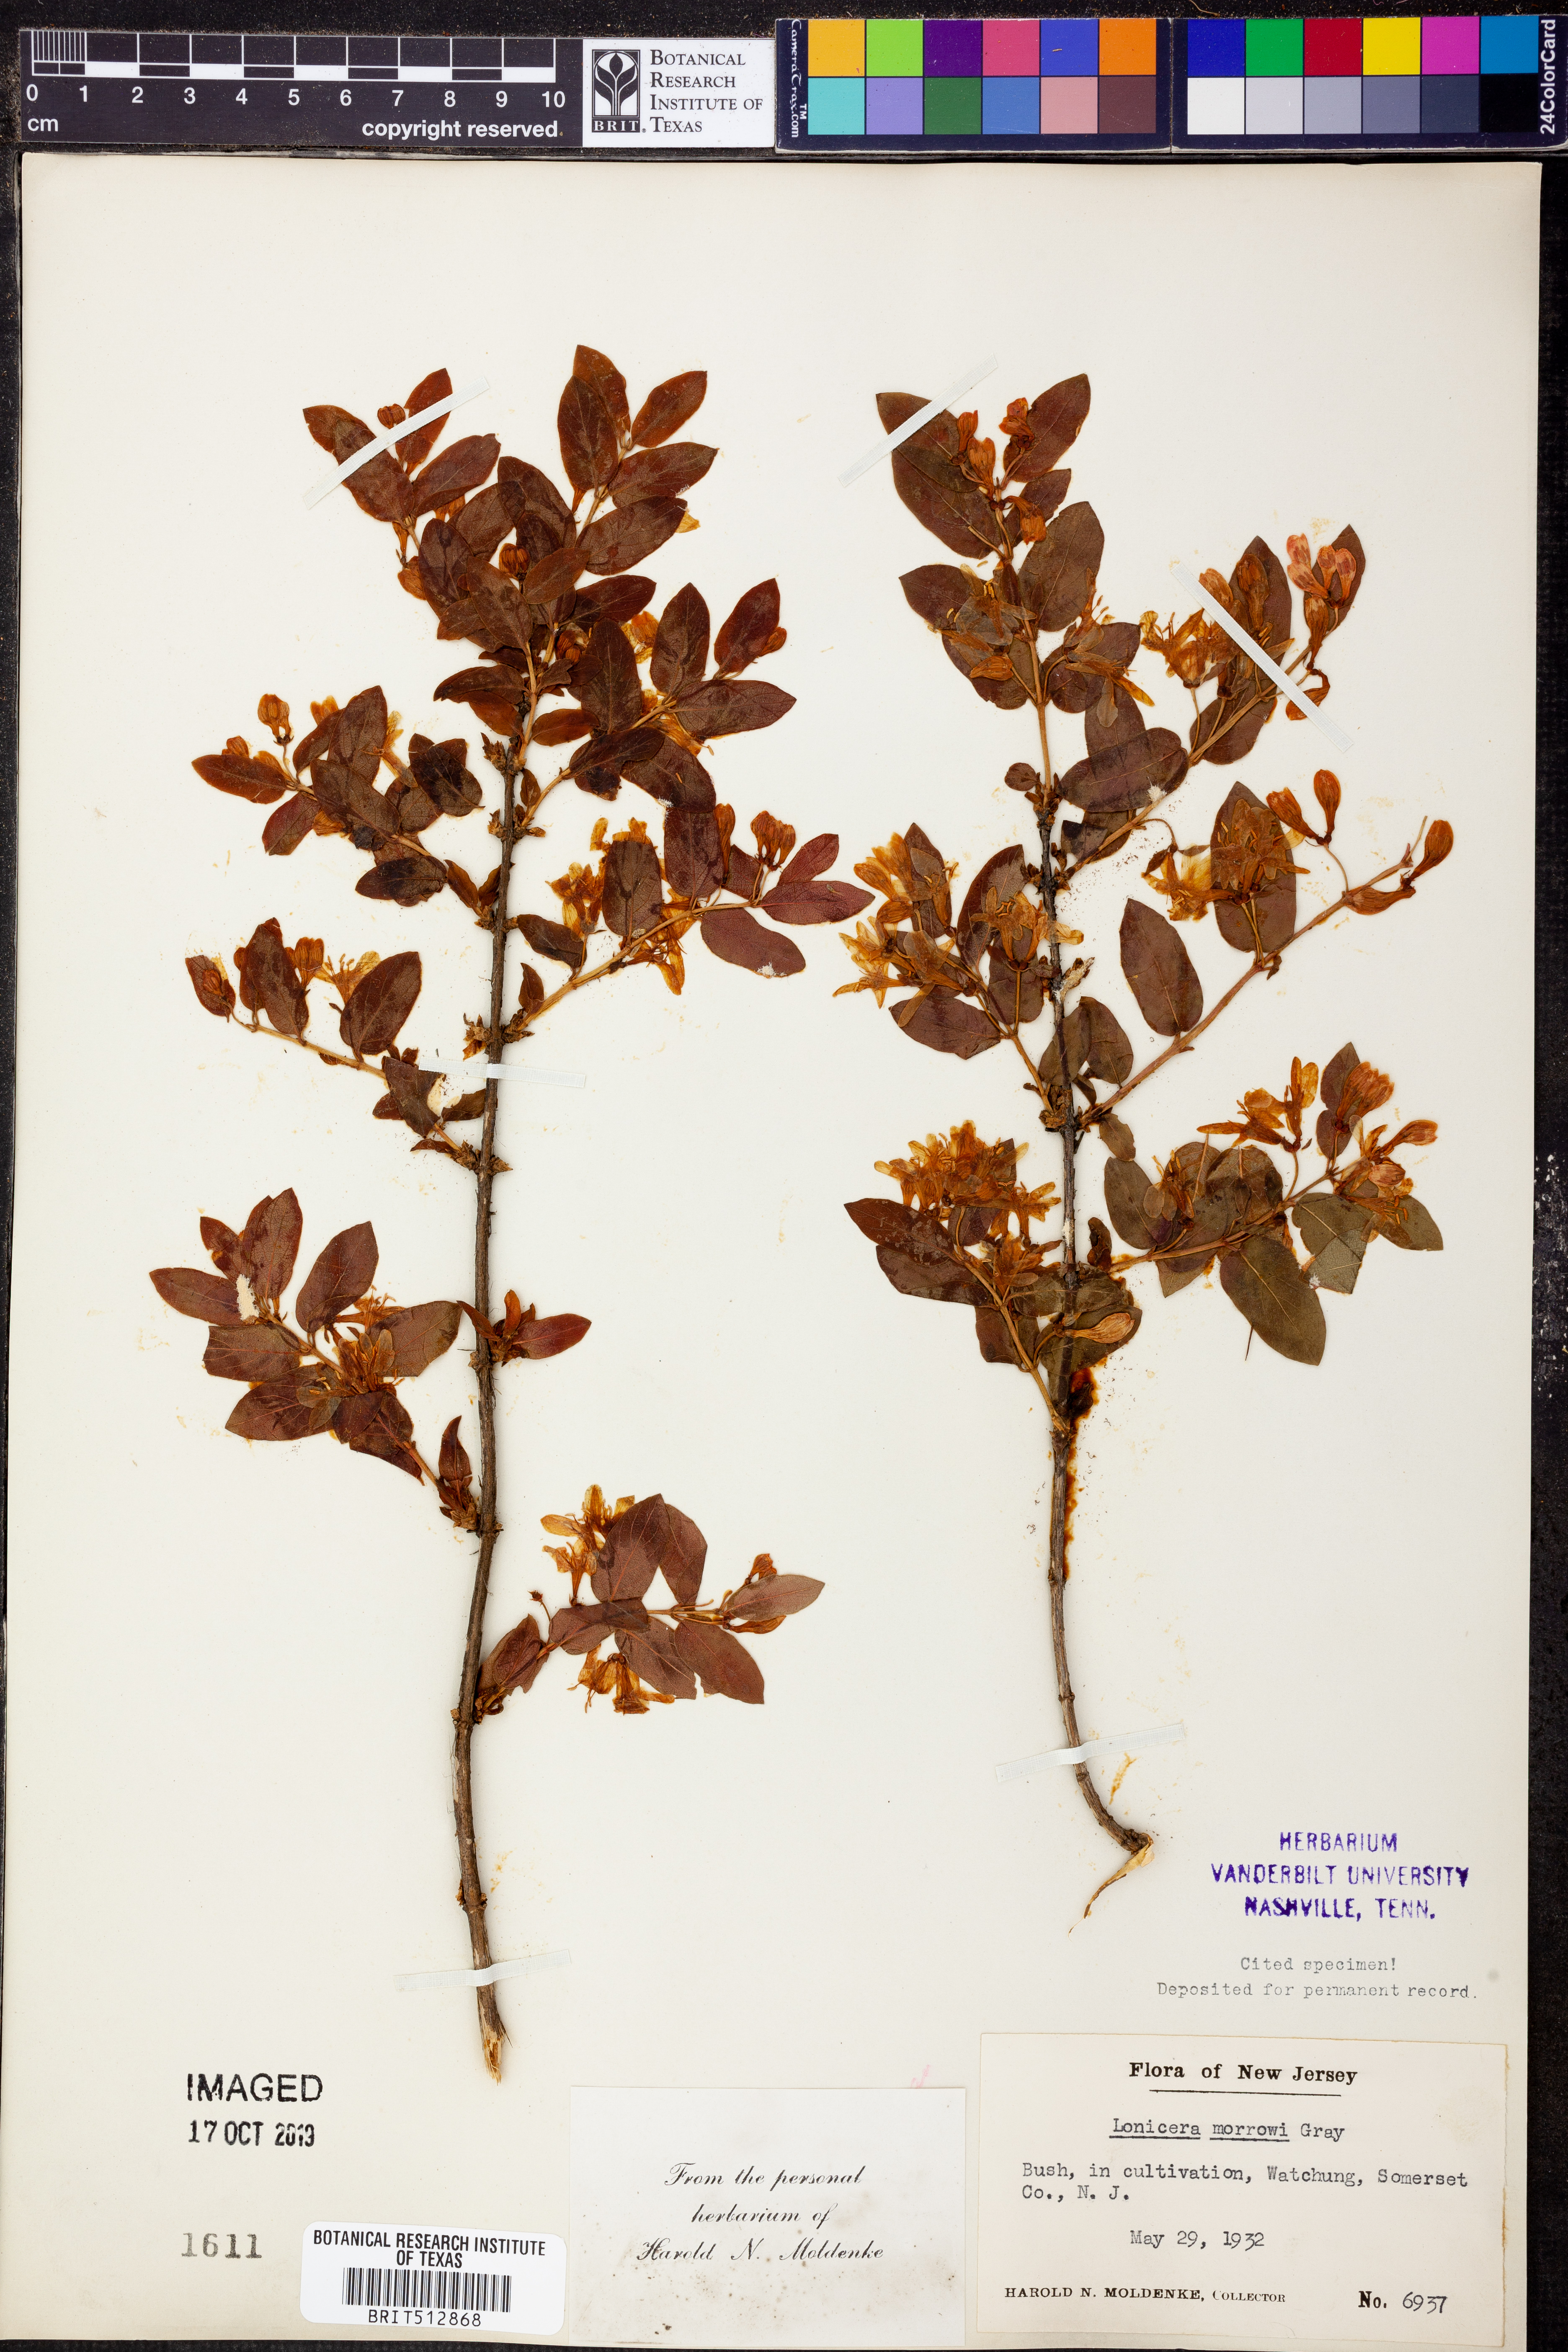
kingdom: Plantae
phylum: Tracheophyta
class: Magnoliopsida
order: Dipsacales
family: Caprifoliaceae
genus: Lonicera
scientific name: Lonicera morrowii
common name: Morrow's honeysuckle
